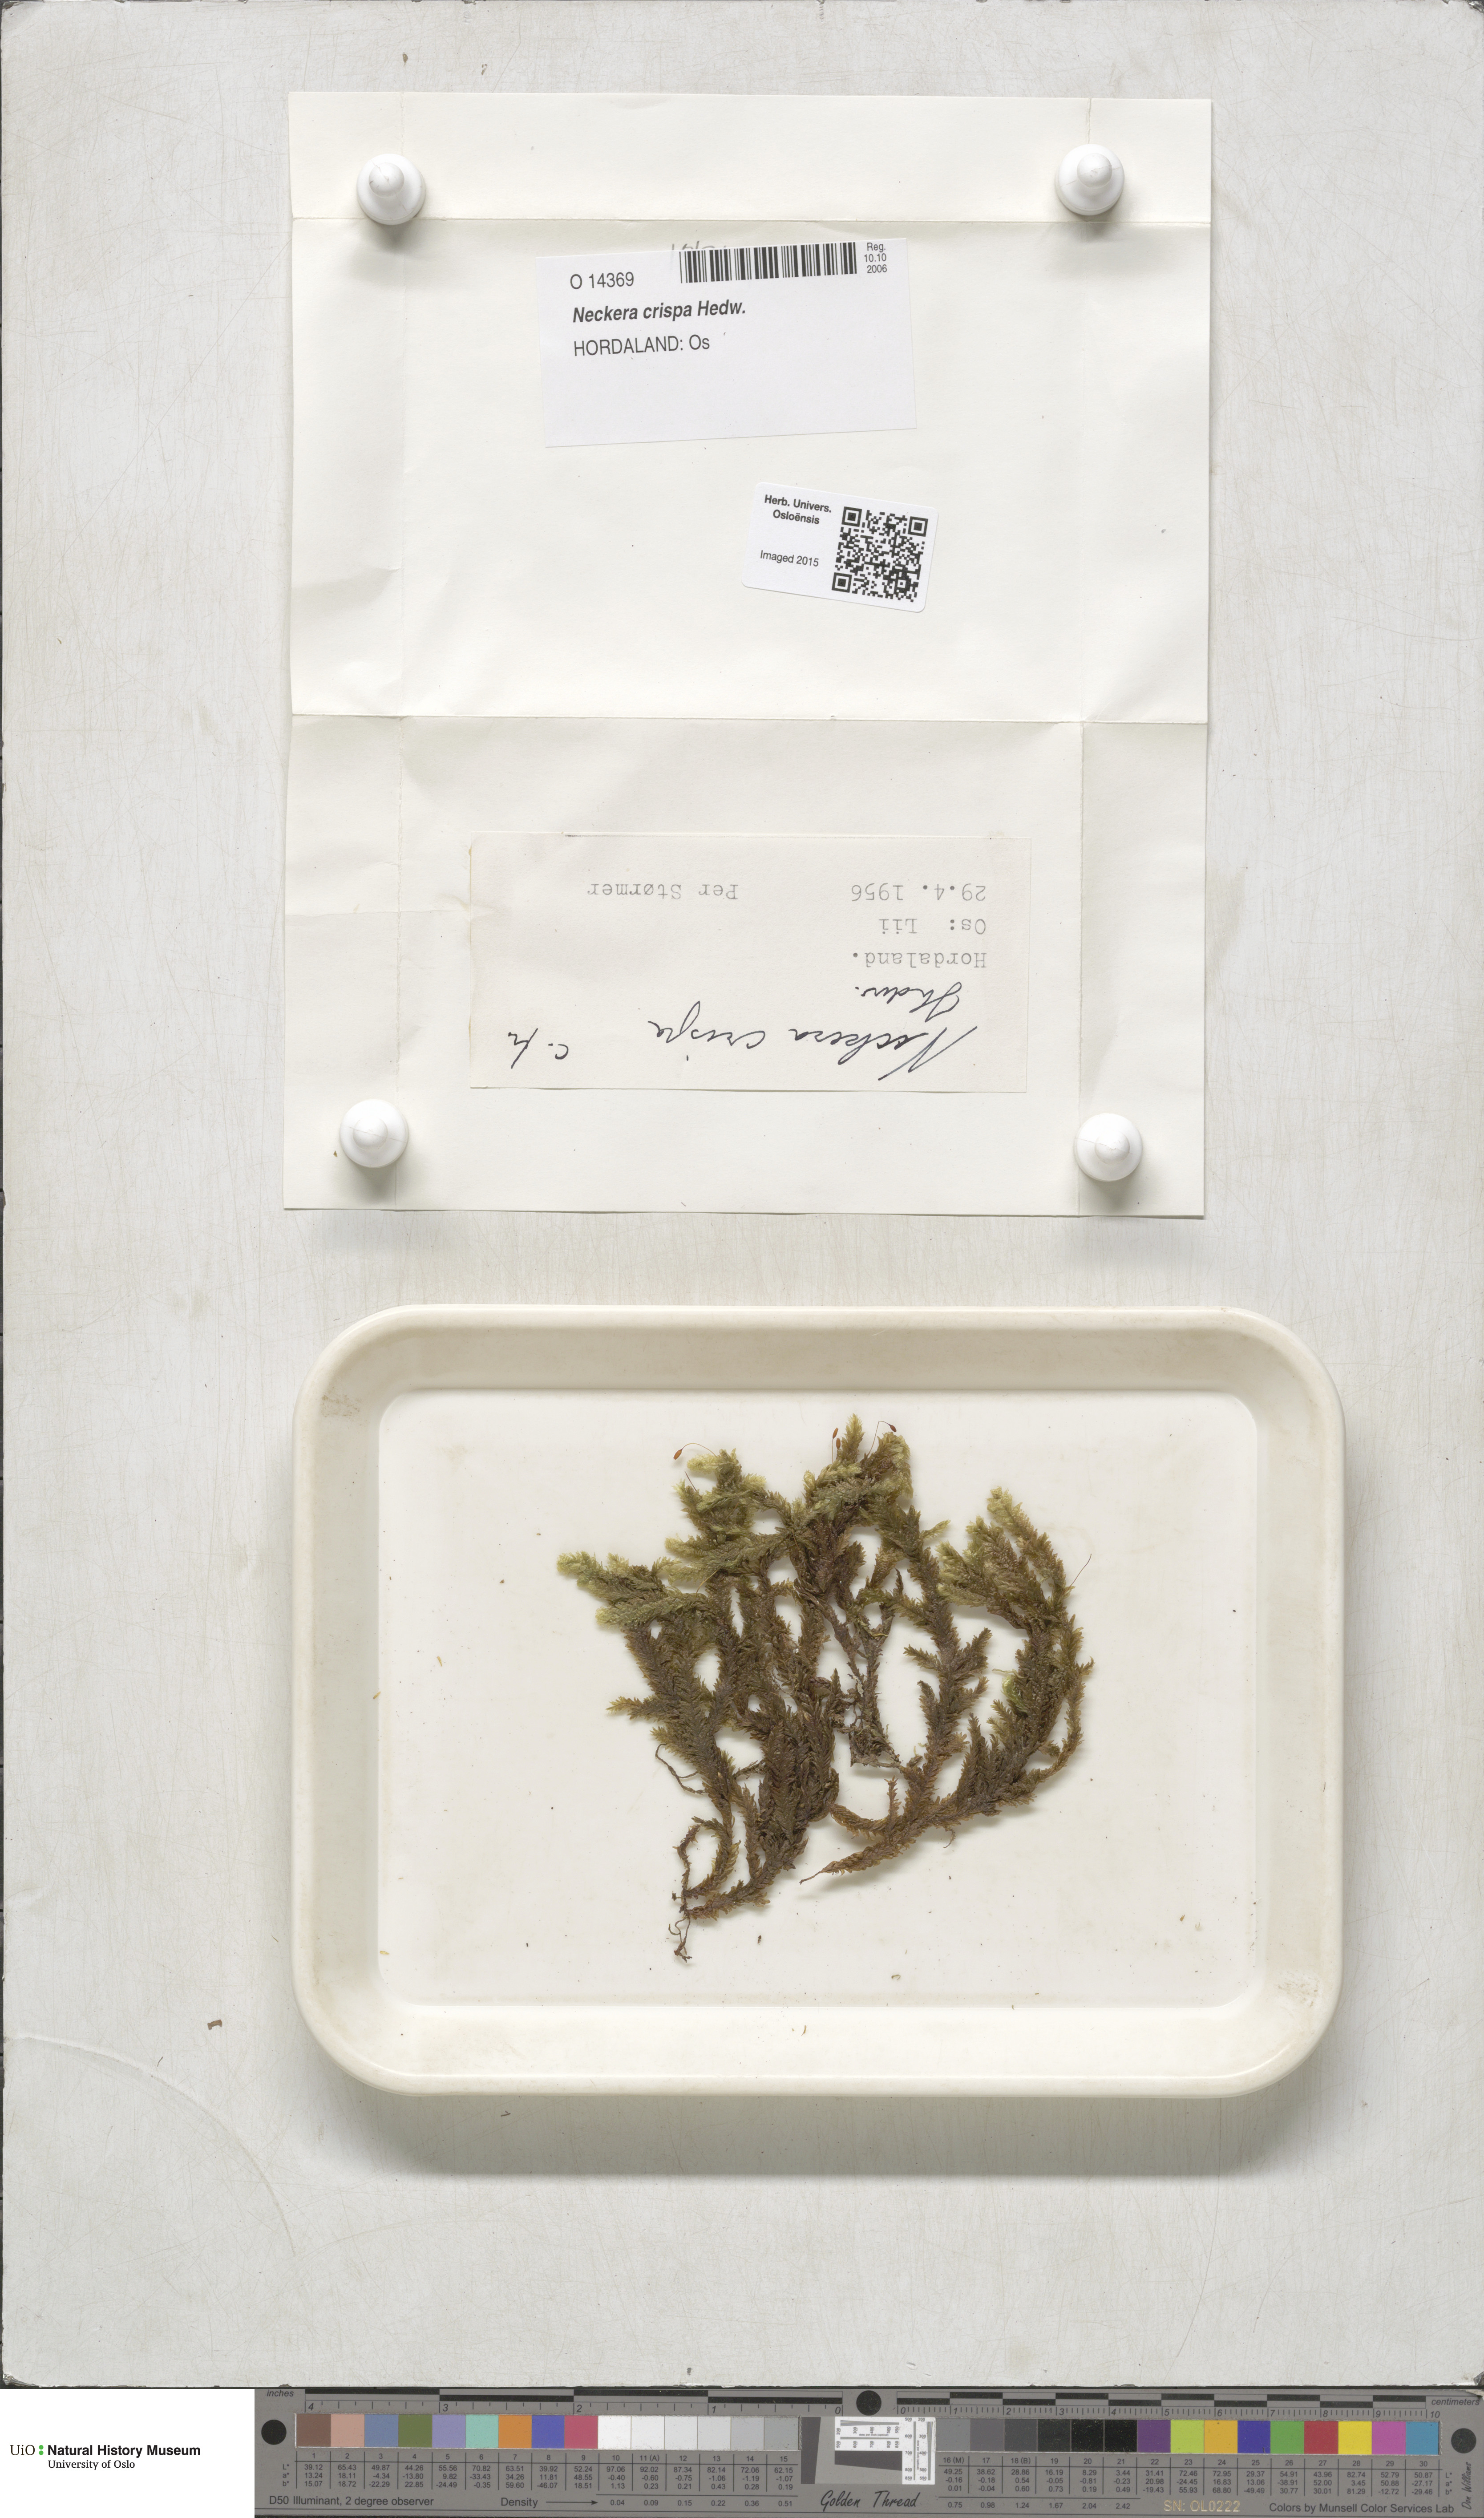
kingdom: Plantae
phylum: Bryophyta
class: Bryopsida
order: Hypnales
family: Neckeraceae
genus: Exsertotheca
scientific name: Exsertotheca crispa
